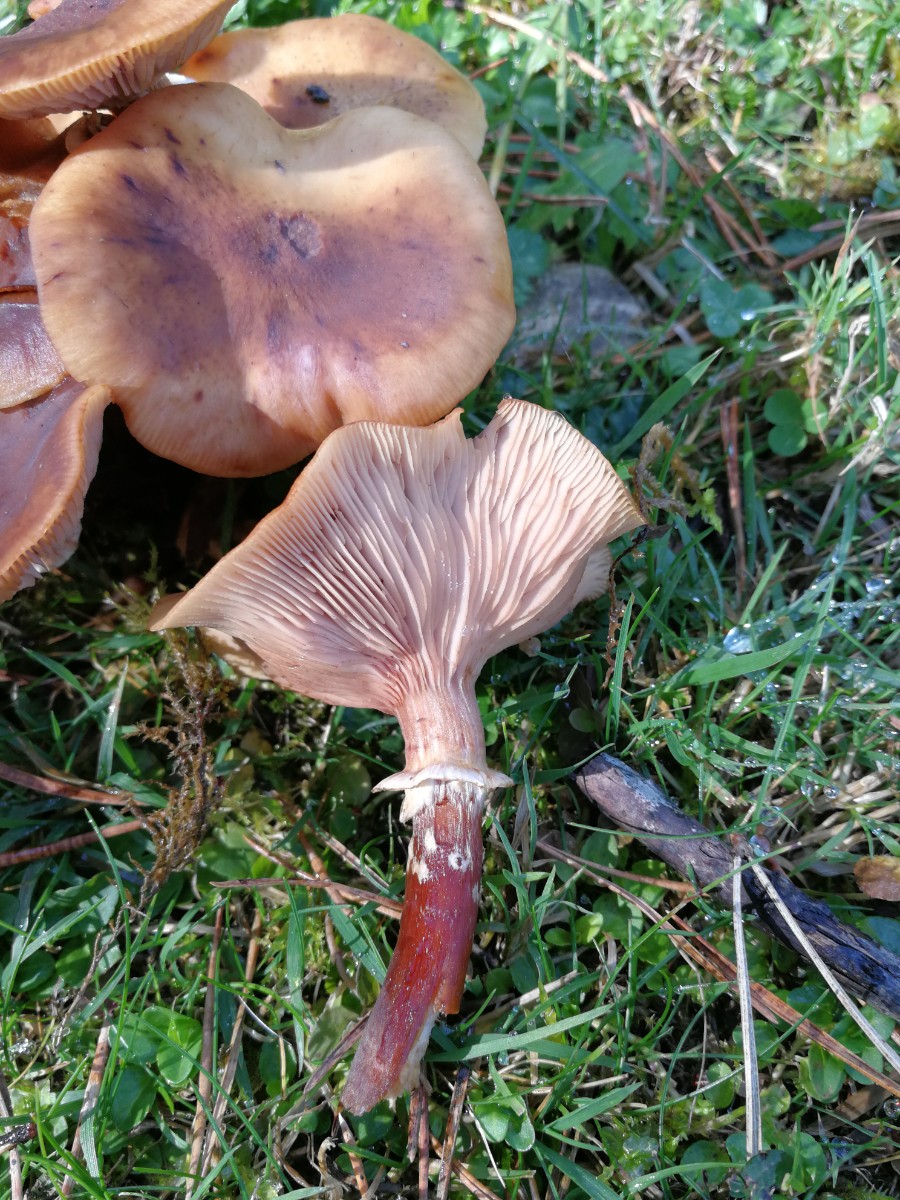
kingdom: Fungi
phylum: Basidiomycota
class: Agaricomycetes
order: Agaricales
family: Physalacriaceae
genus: Armillaria
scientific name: Armillaria mellea
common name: ægte honningsvamp
